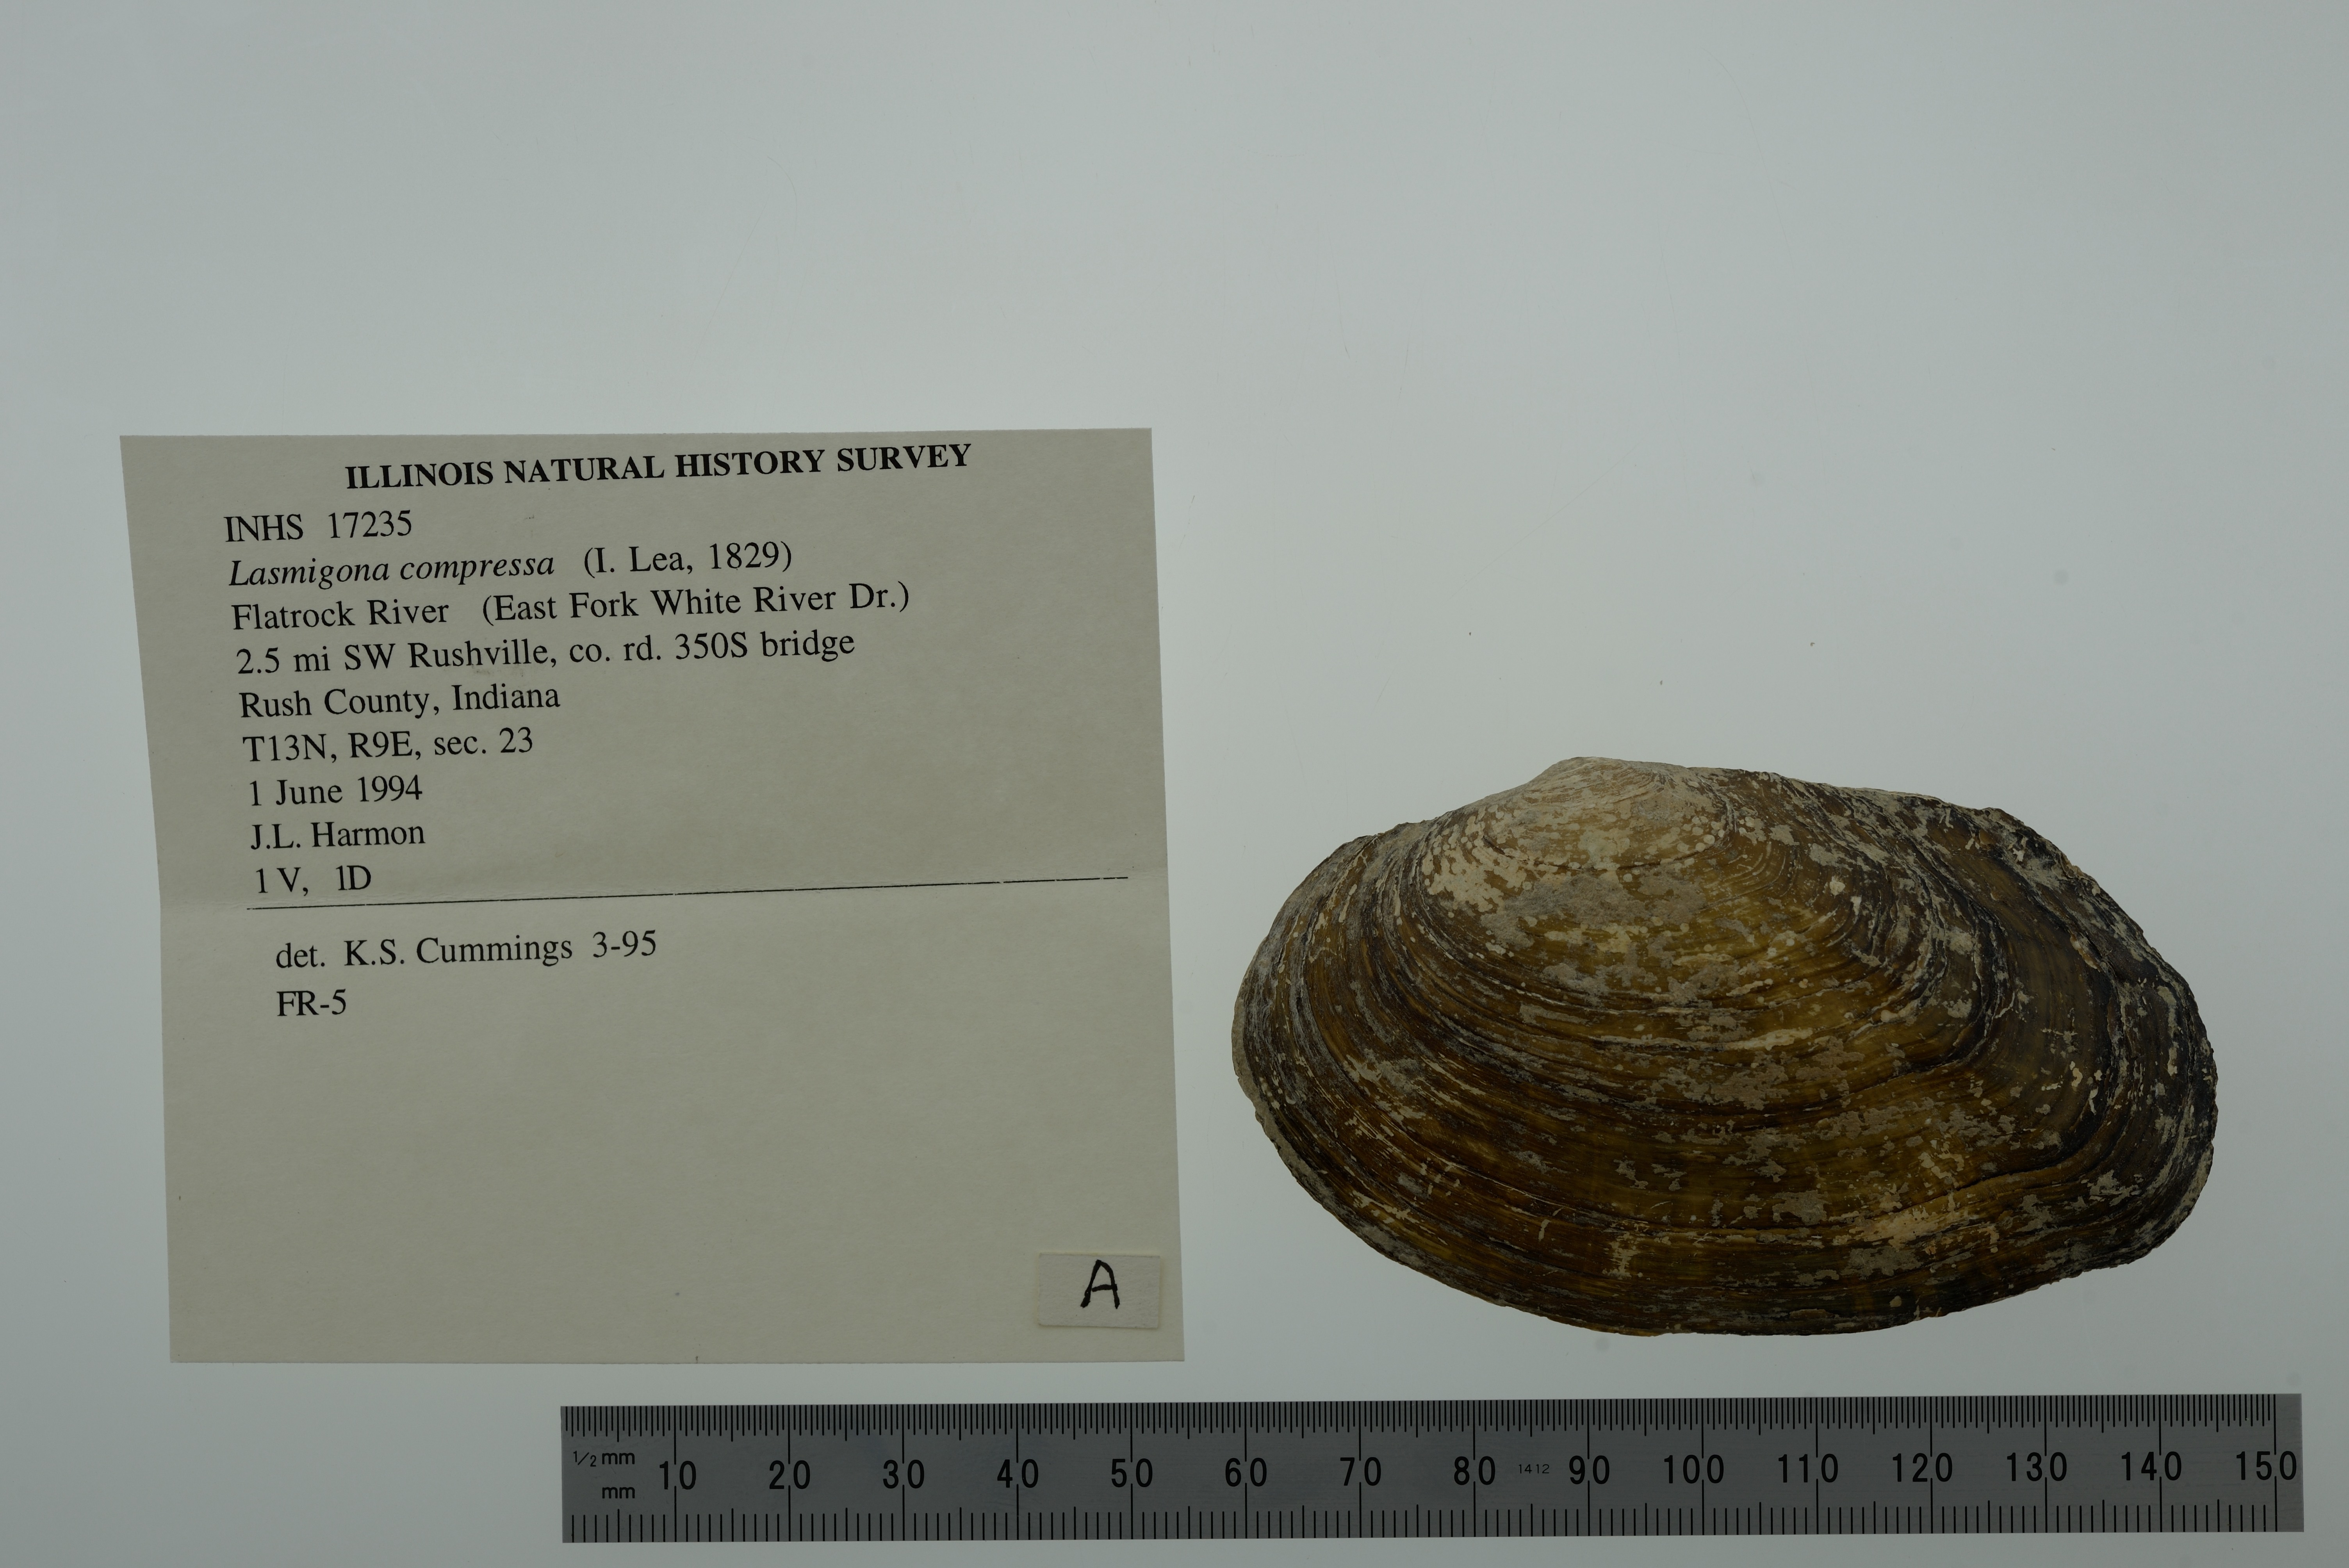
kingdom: Animalia
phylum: Mollusca
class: Bivalvia
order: Unionida
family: Unionidae
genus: Lasmigona
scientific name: Lasmigona compressa
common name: Creek heelsplitter
